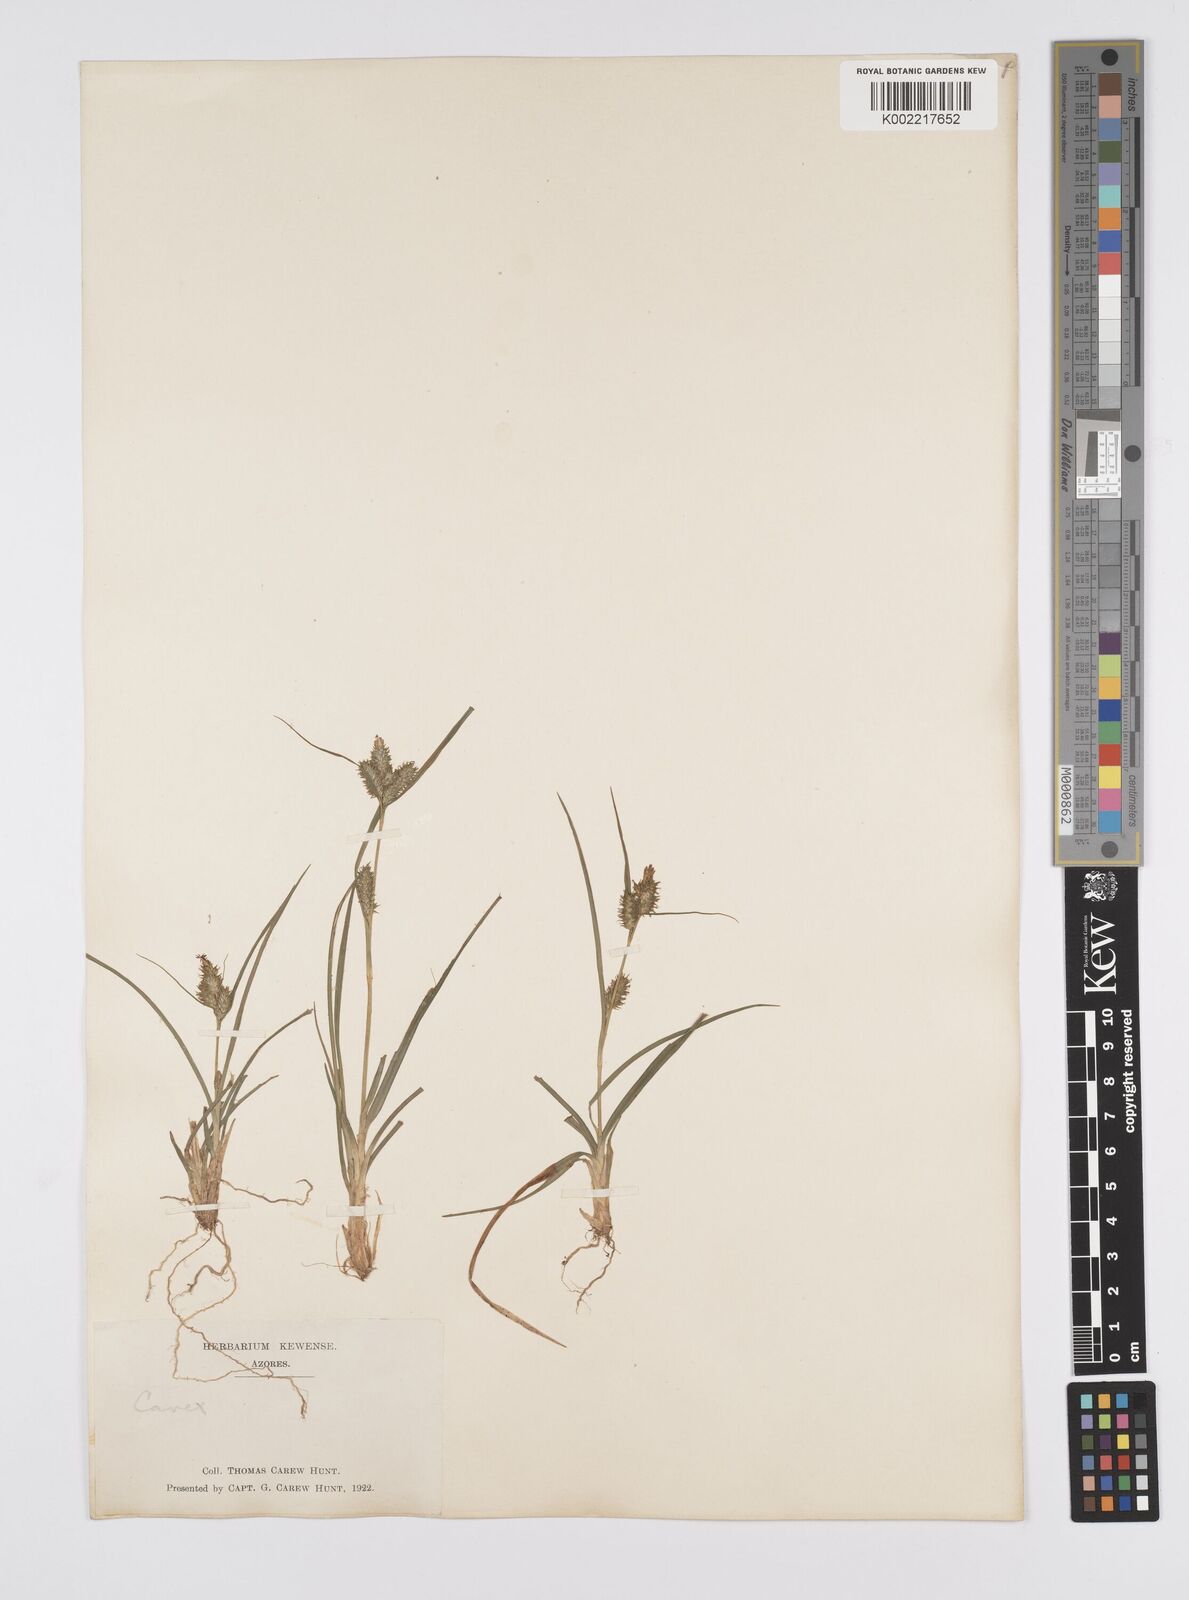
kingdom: Plantae
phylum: Tracheophyta
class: Liliopsida
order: Poales
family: Cyperaceae
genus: Carex
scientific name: Carex
